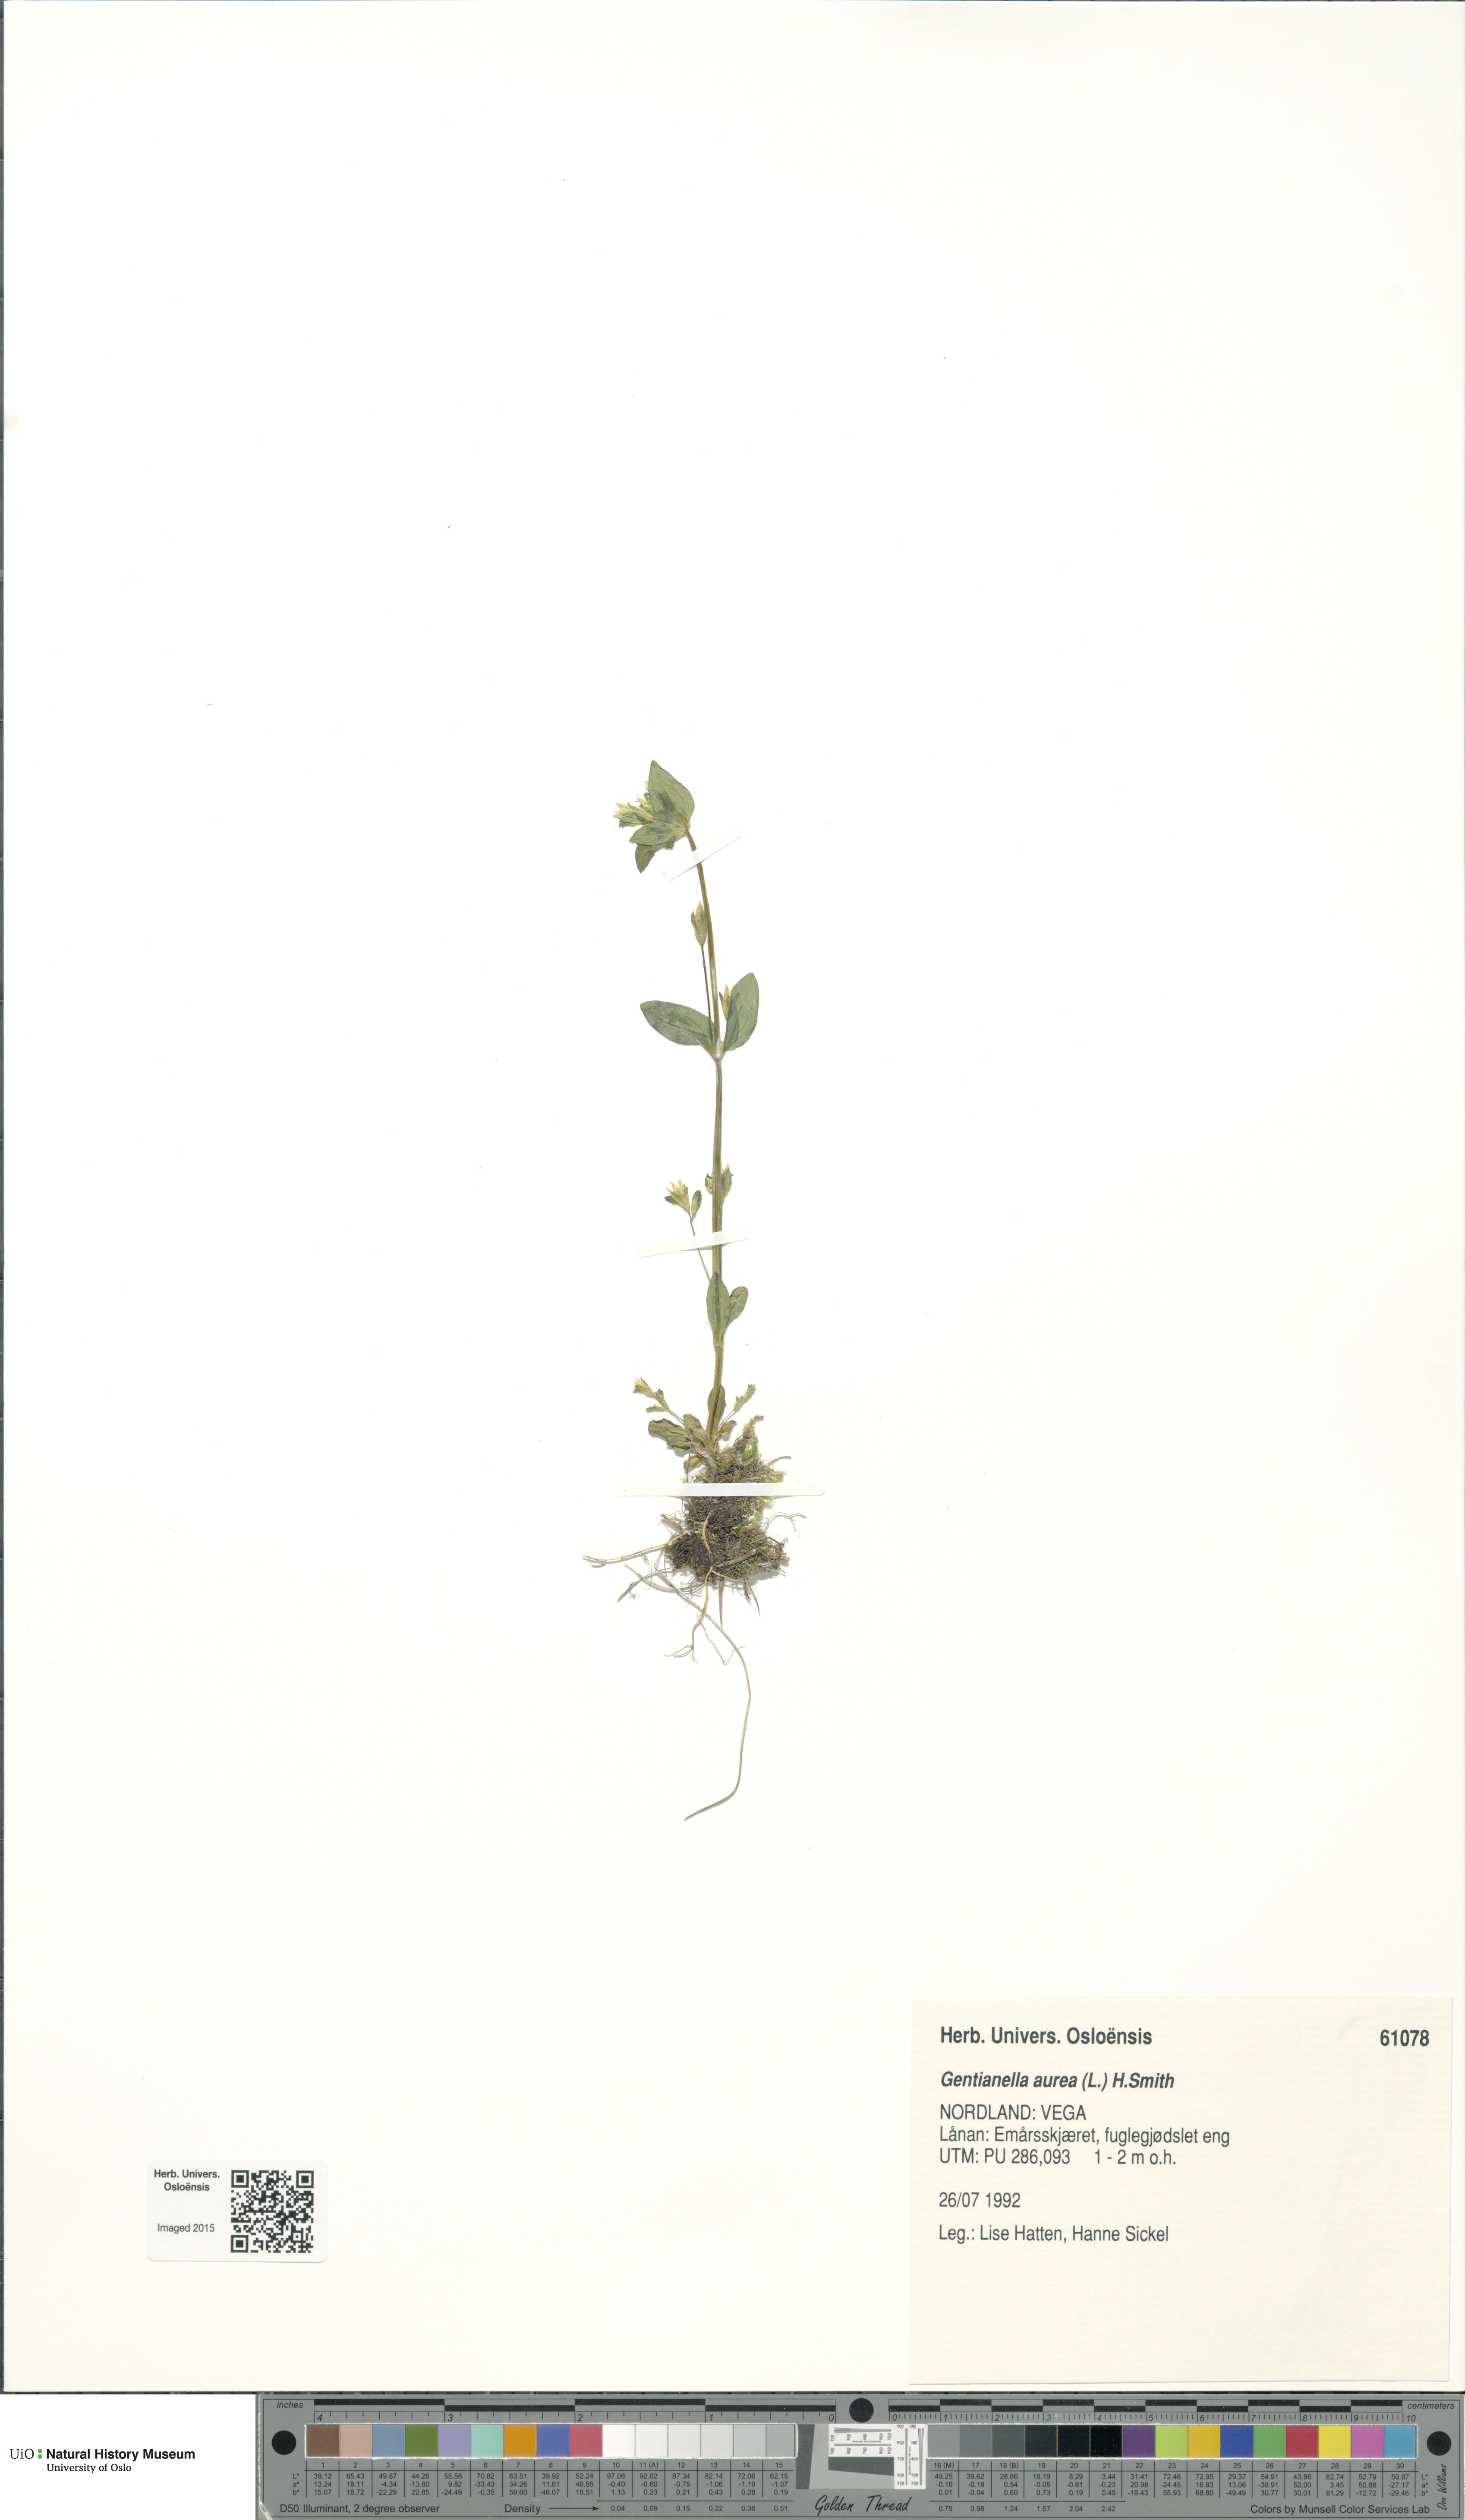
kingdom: Plantae
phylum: Tracheophyta
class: Magnoliopsida
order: Gentianales
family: Gentianaceae
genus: Gentianella
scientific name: Gentianella aurea
